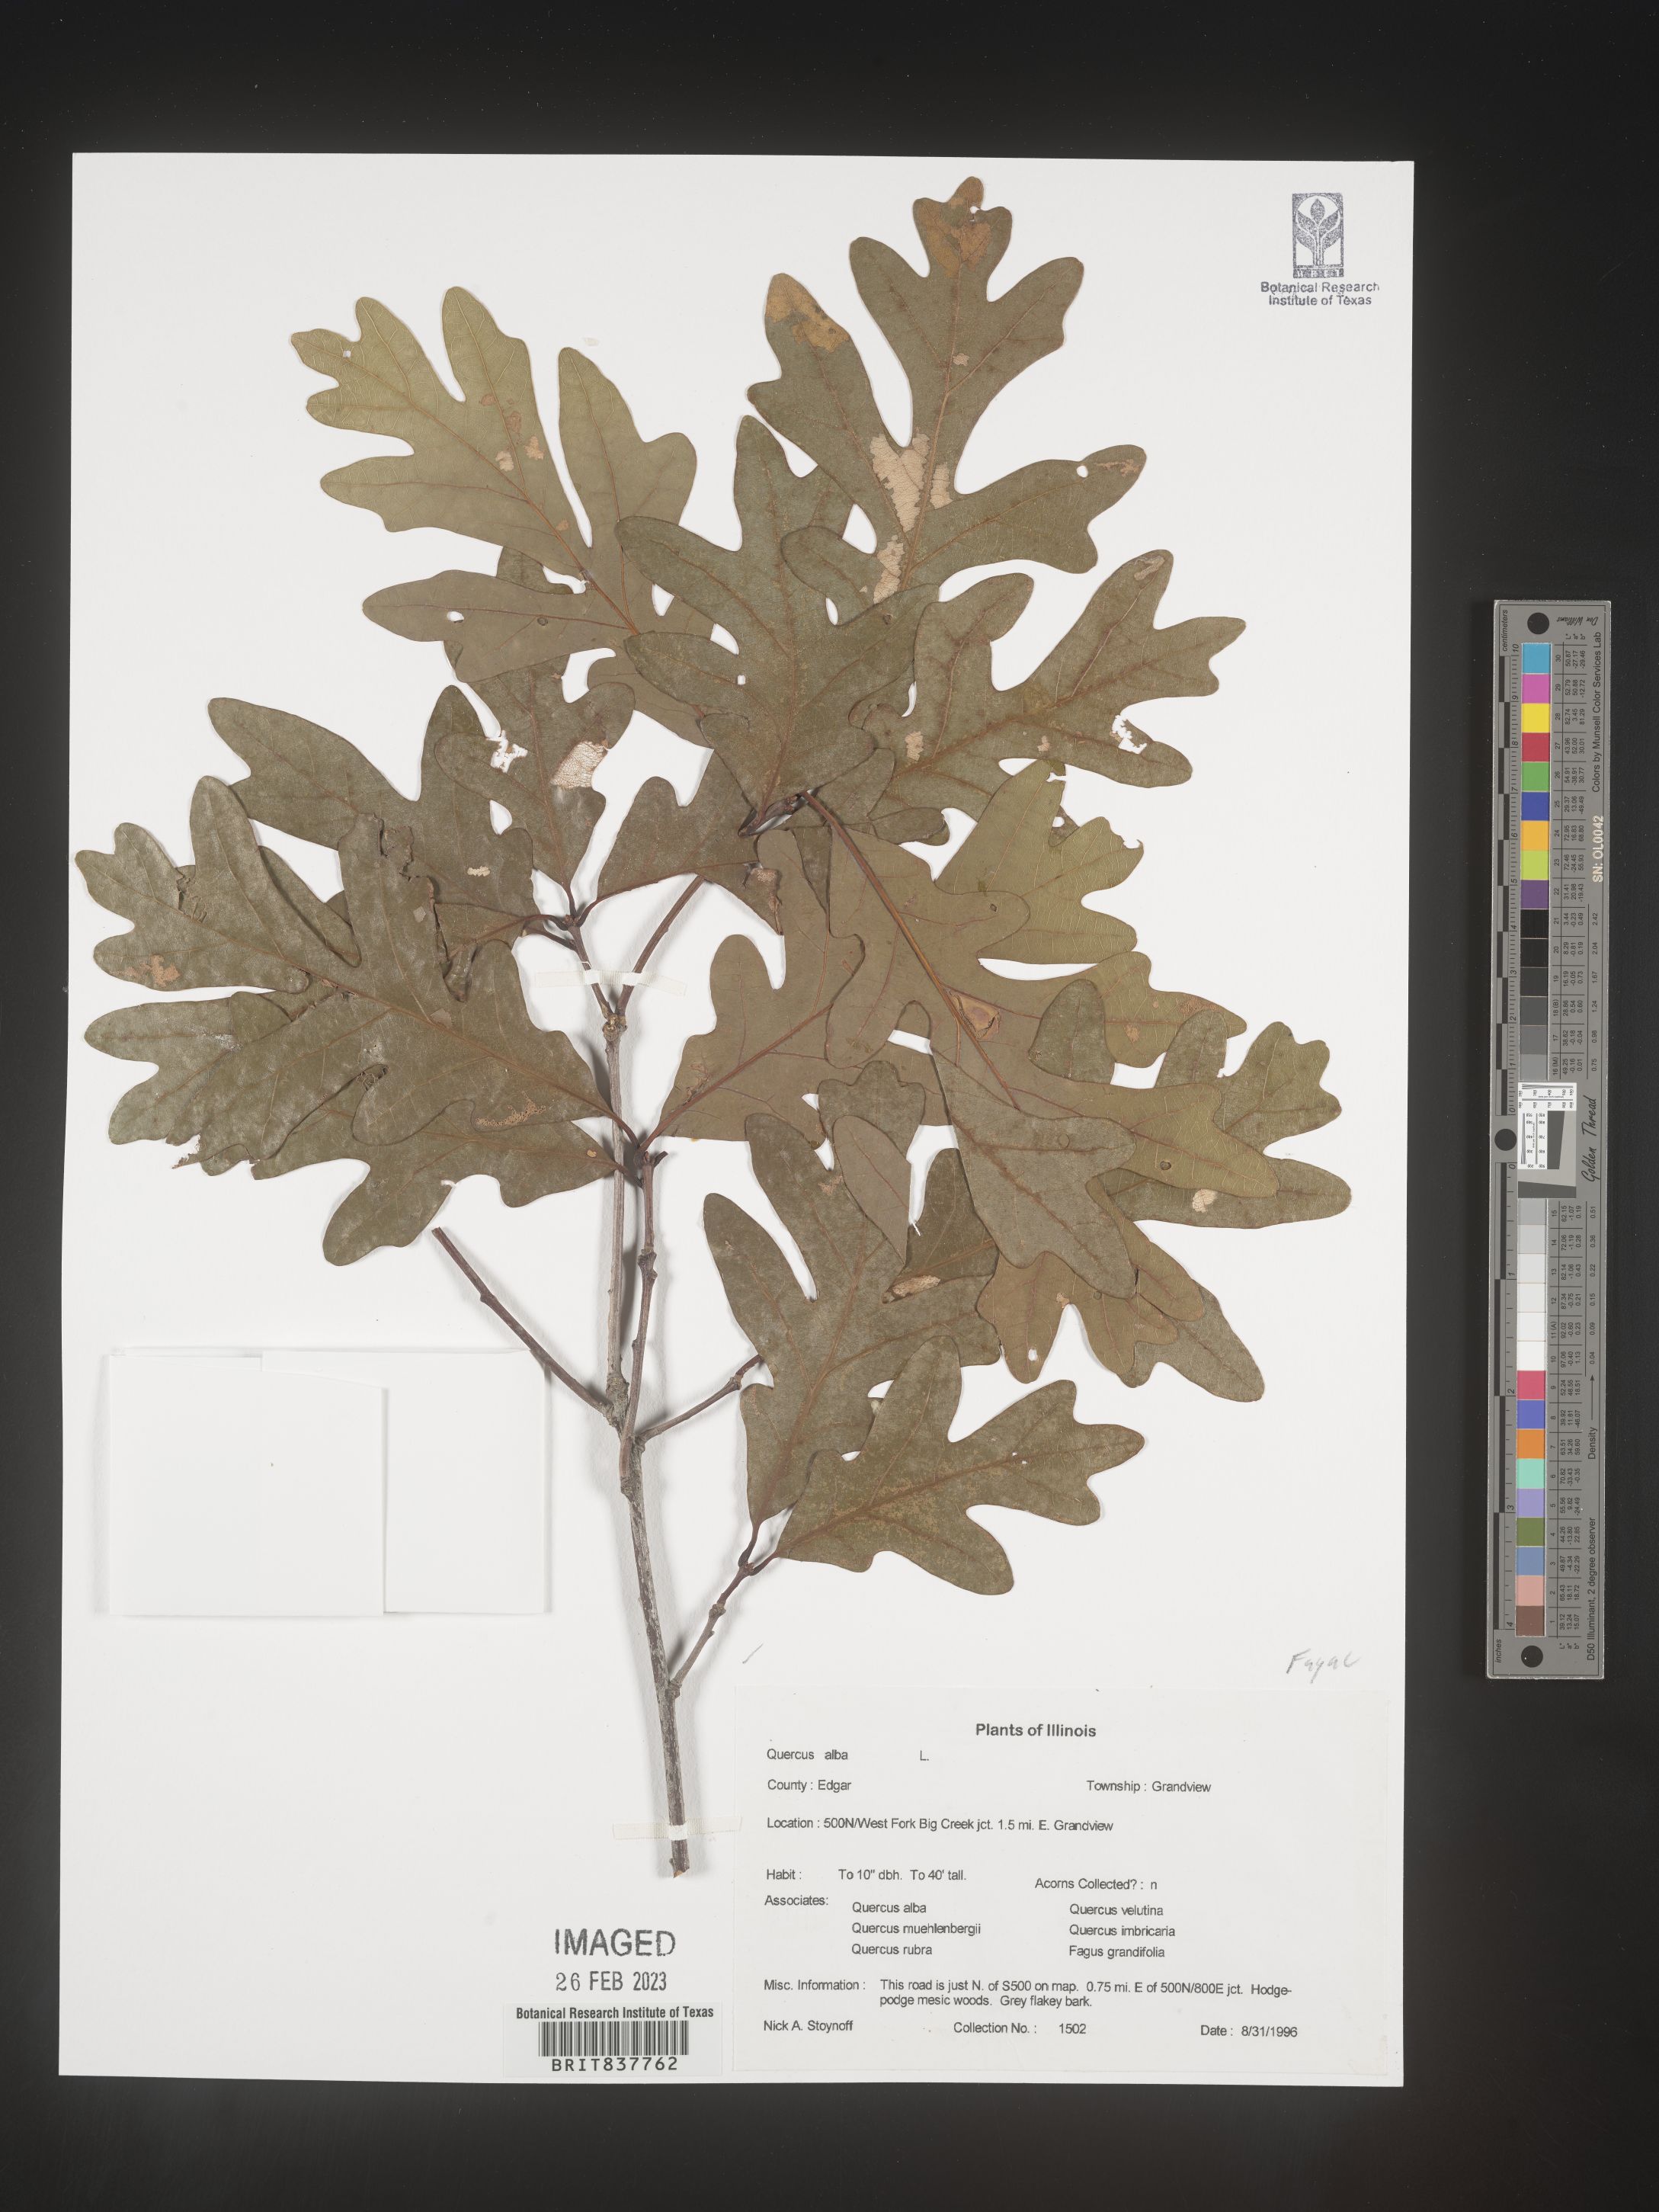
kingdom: Plantae
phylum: Tracheophyta
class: Magnoliopsida
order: Fagales
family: Fagaceae
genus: Quercus
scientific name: Quercus alba
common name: White oak
